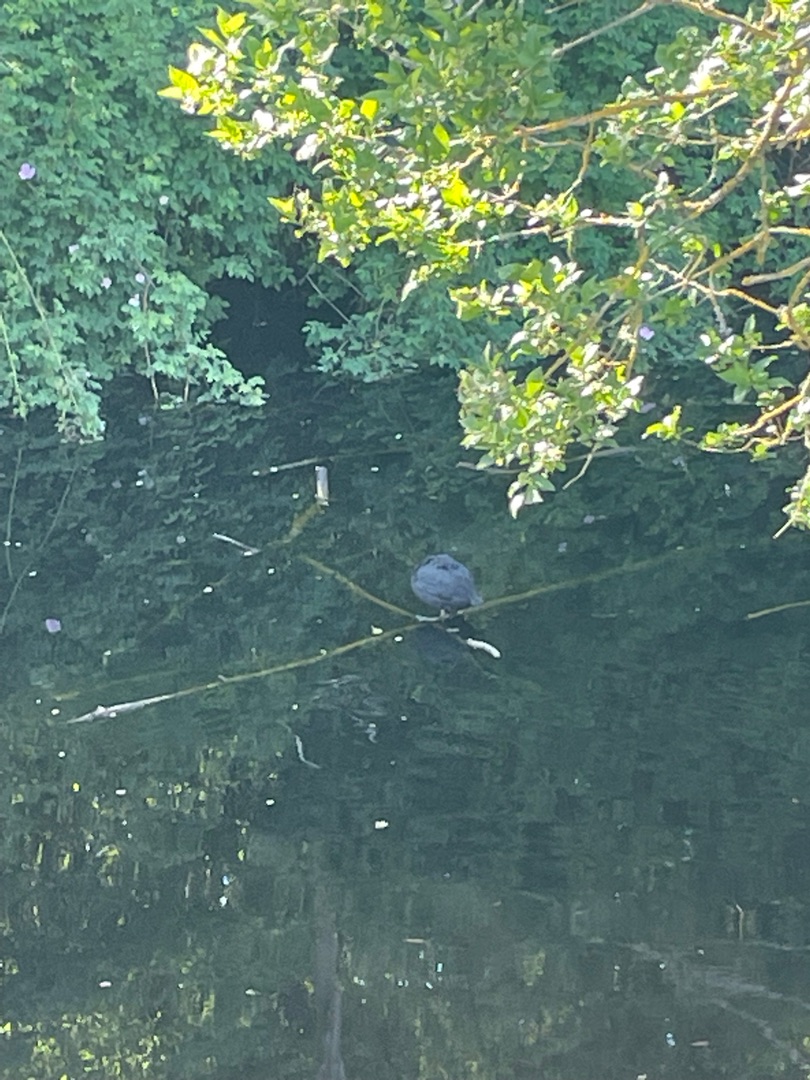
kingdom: Animalia
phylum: Chordata
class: Aves
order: Gruiformes
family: Rallidae
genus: Fulica
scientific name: Fulica atra
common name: Blishøne
